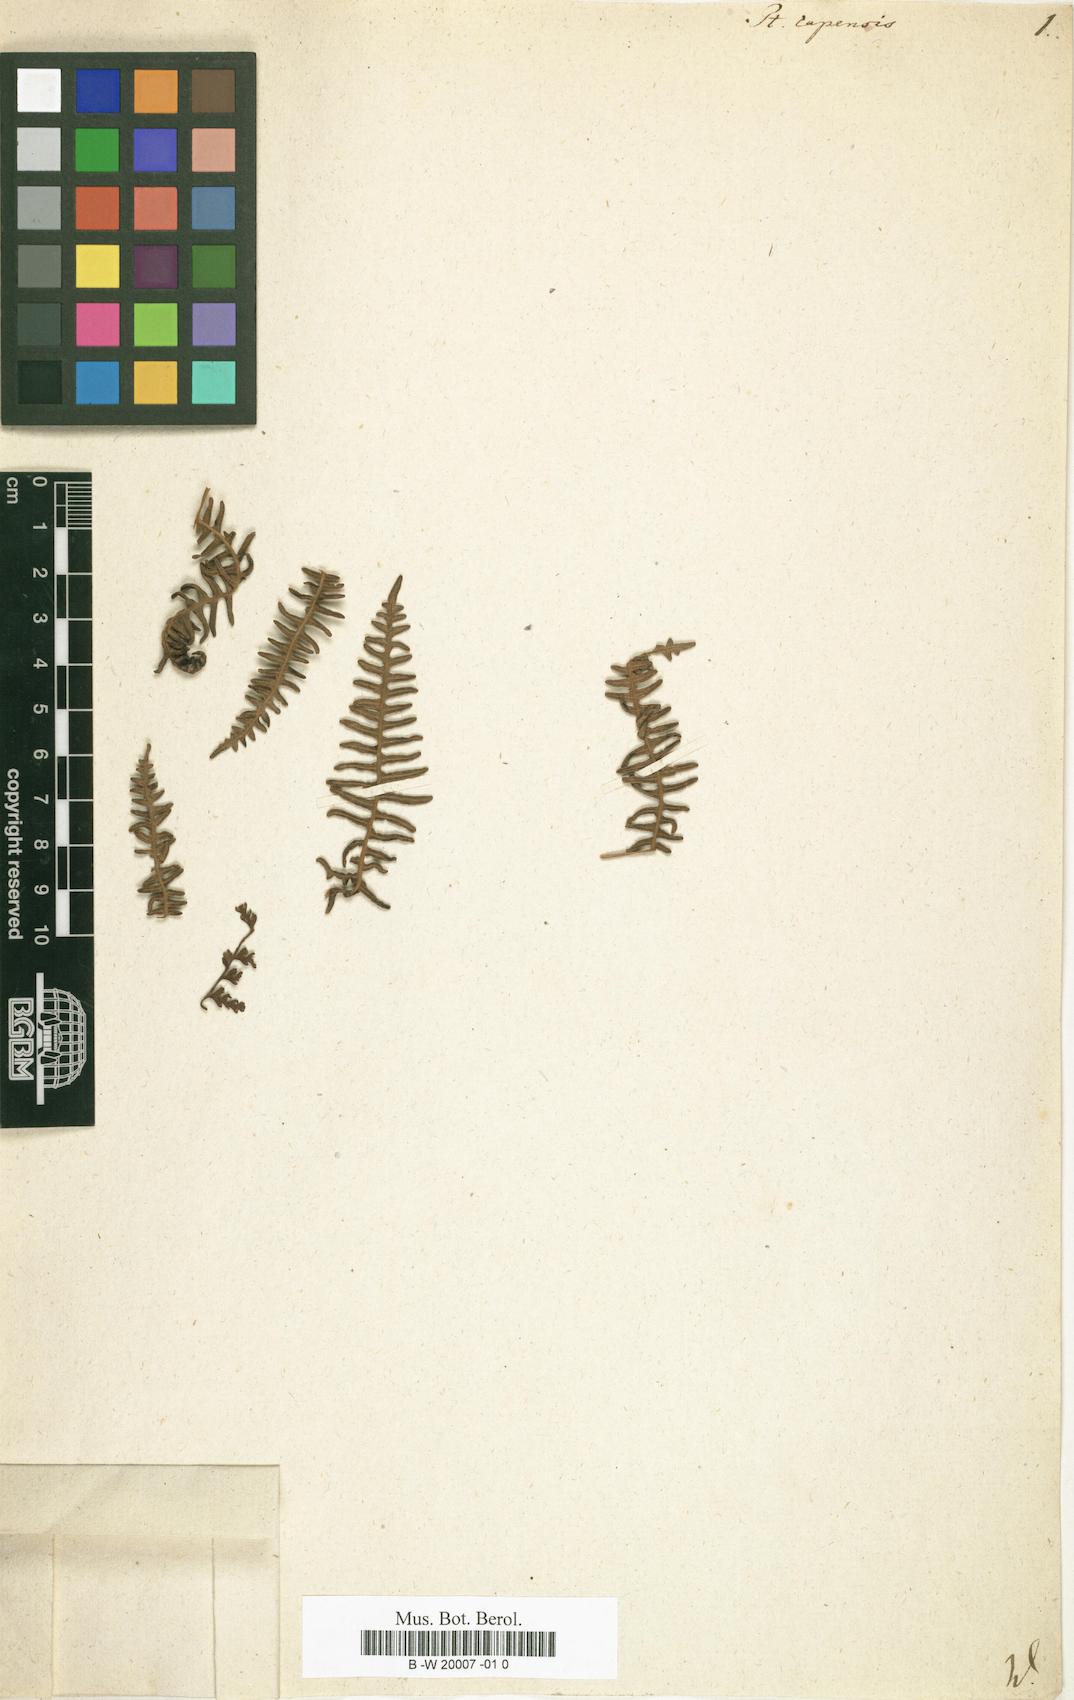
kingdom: Plantae
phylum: Tracheophyta
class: Polypodiopsida
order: Polypodiales
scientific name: Polypodiales
